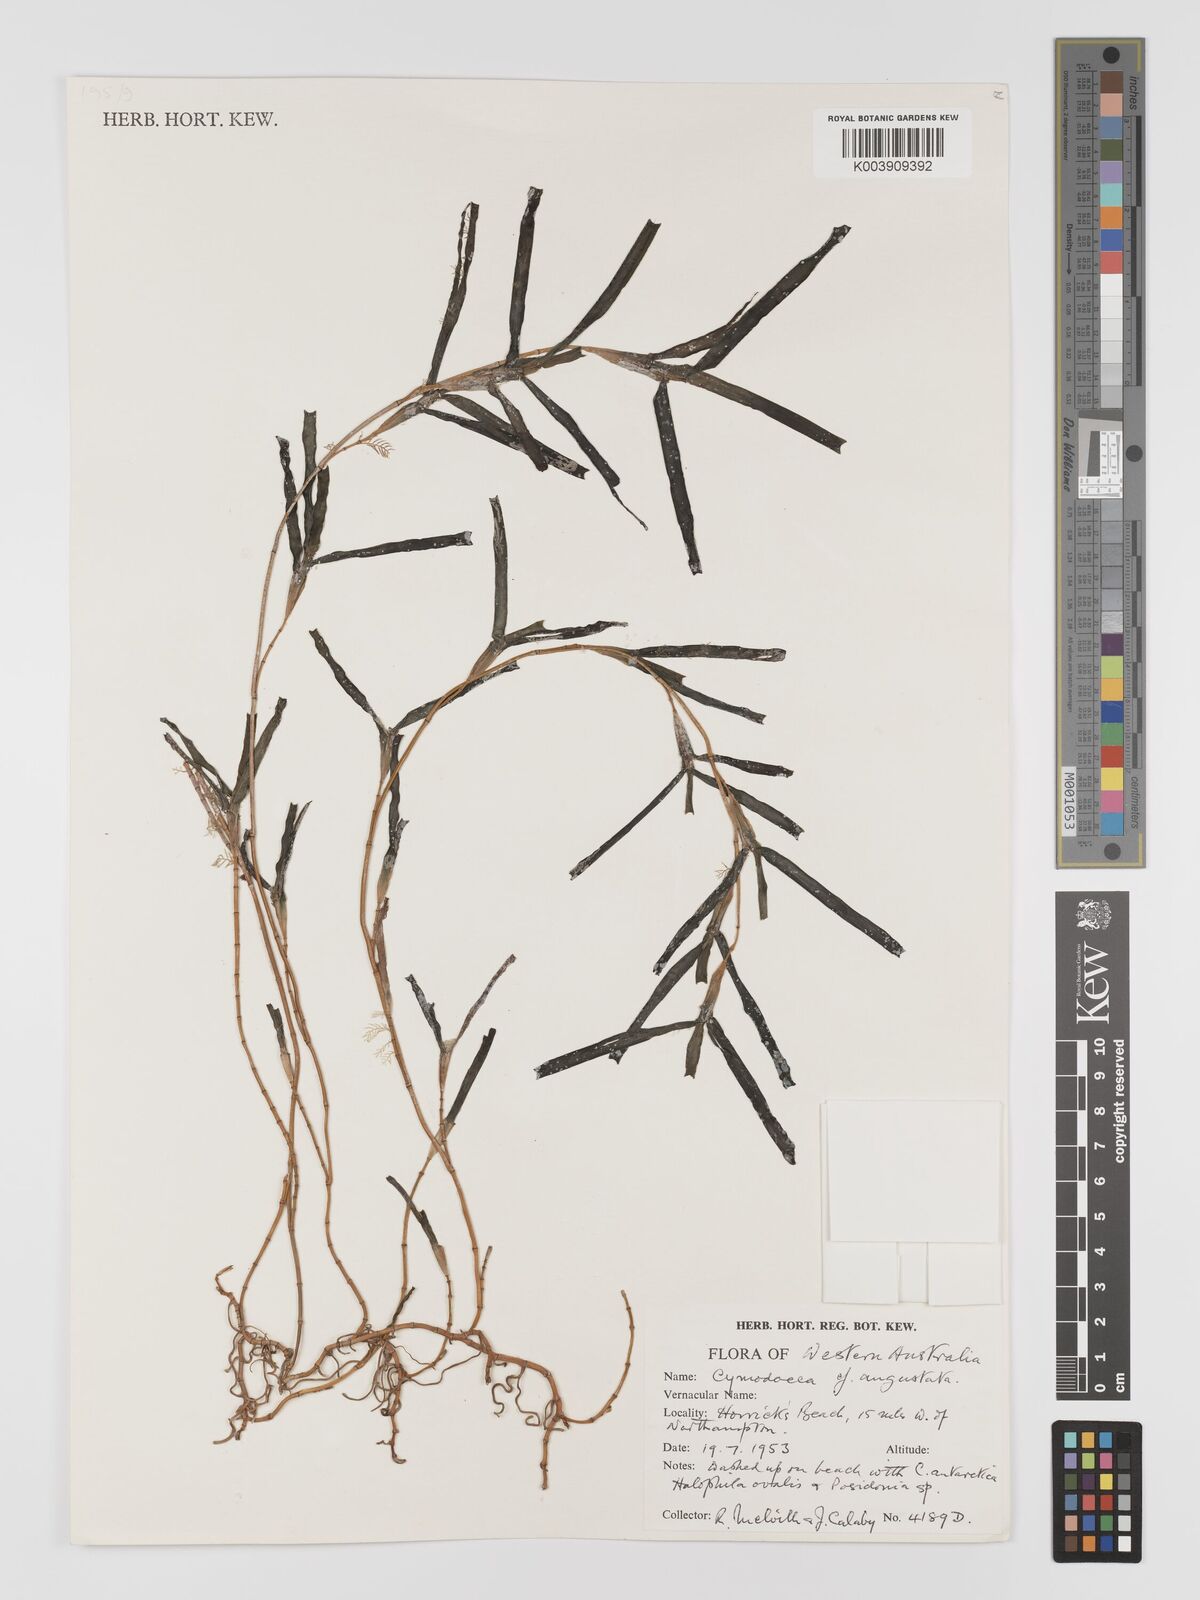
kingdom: Plantae
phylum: Tracheophyta
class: Liliopsida
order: Alismatales
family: Cymodoceaceae
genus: Cymodocea
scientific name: Cymodocea angustata
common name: Species code: ca
